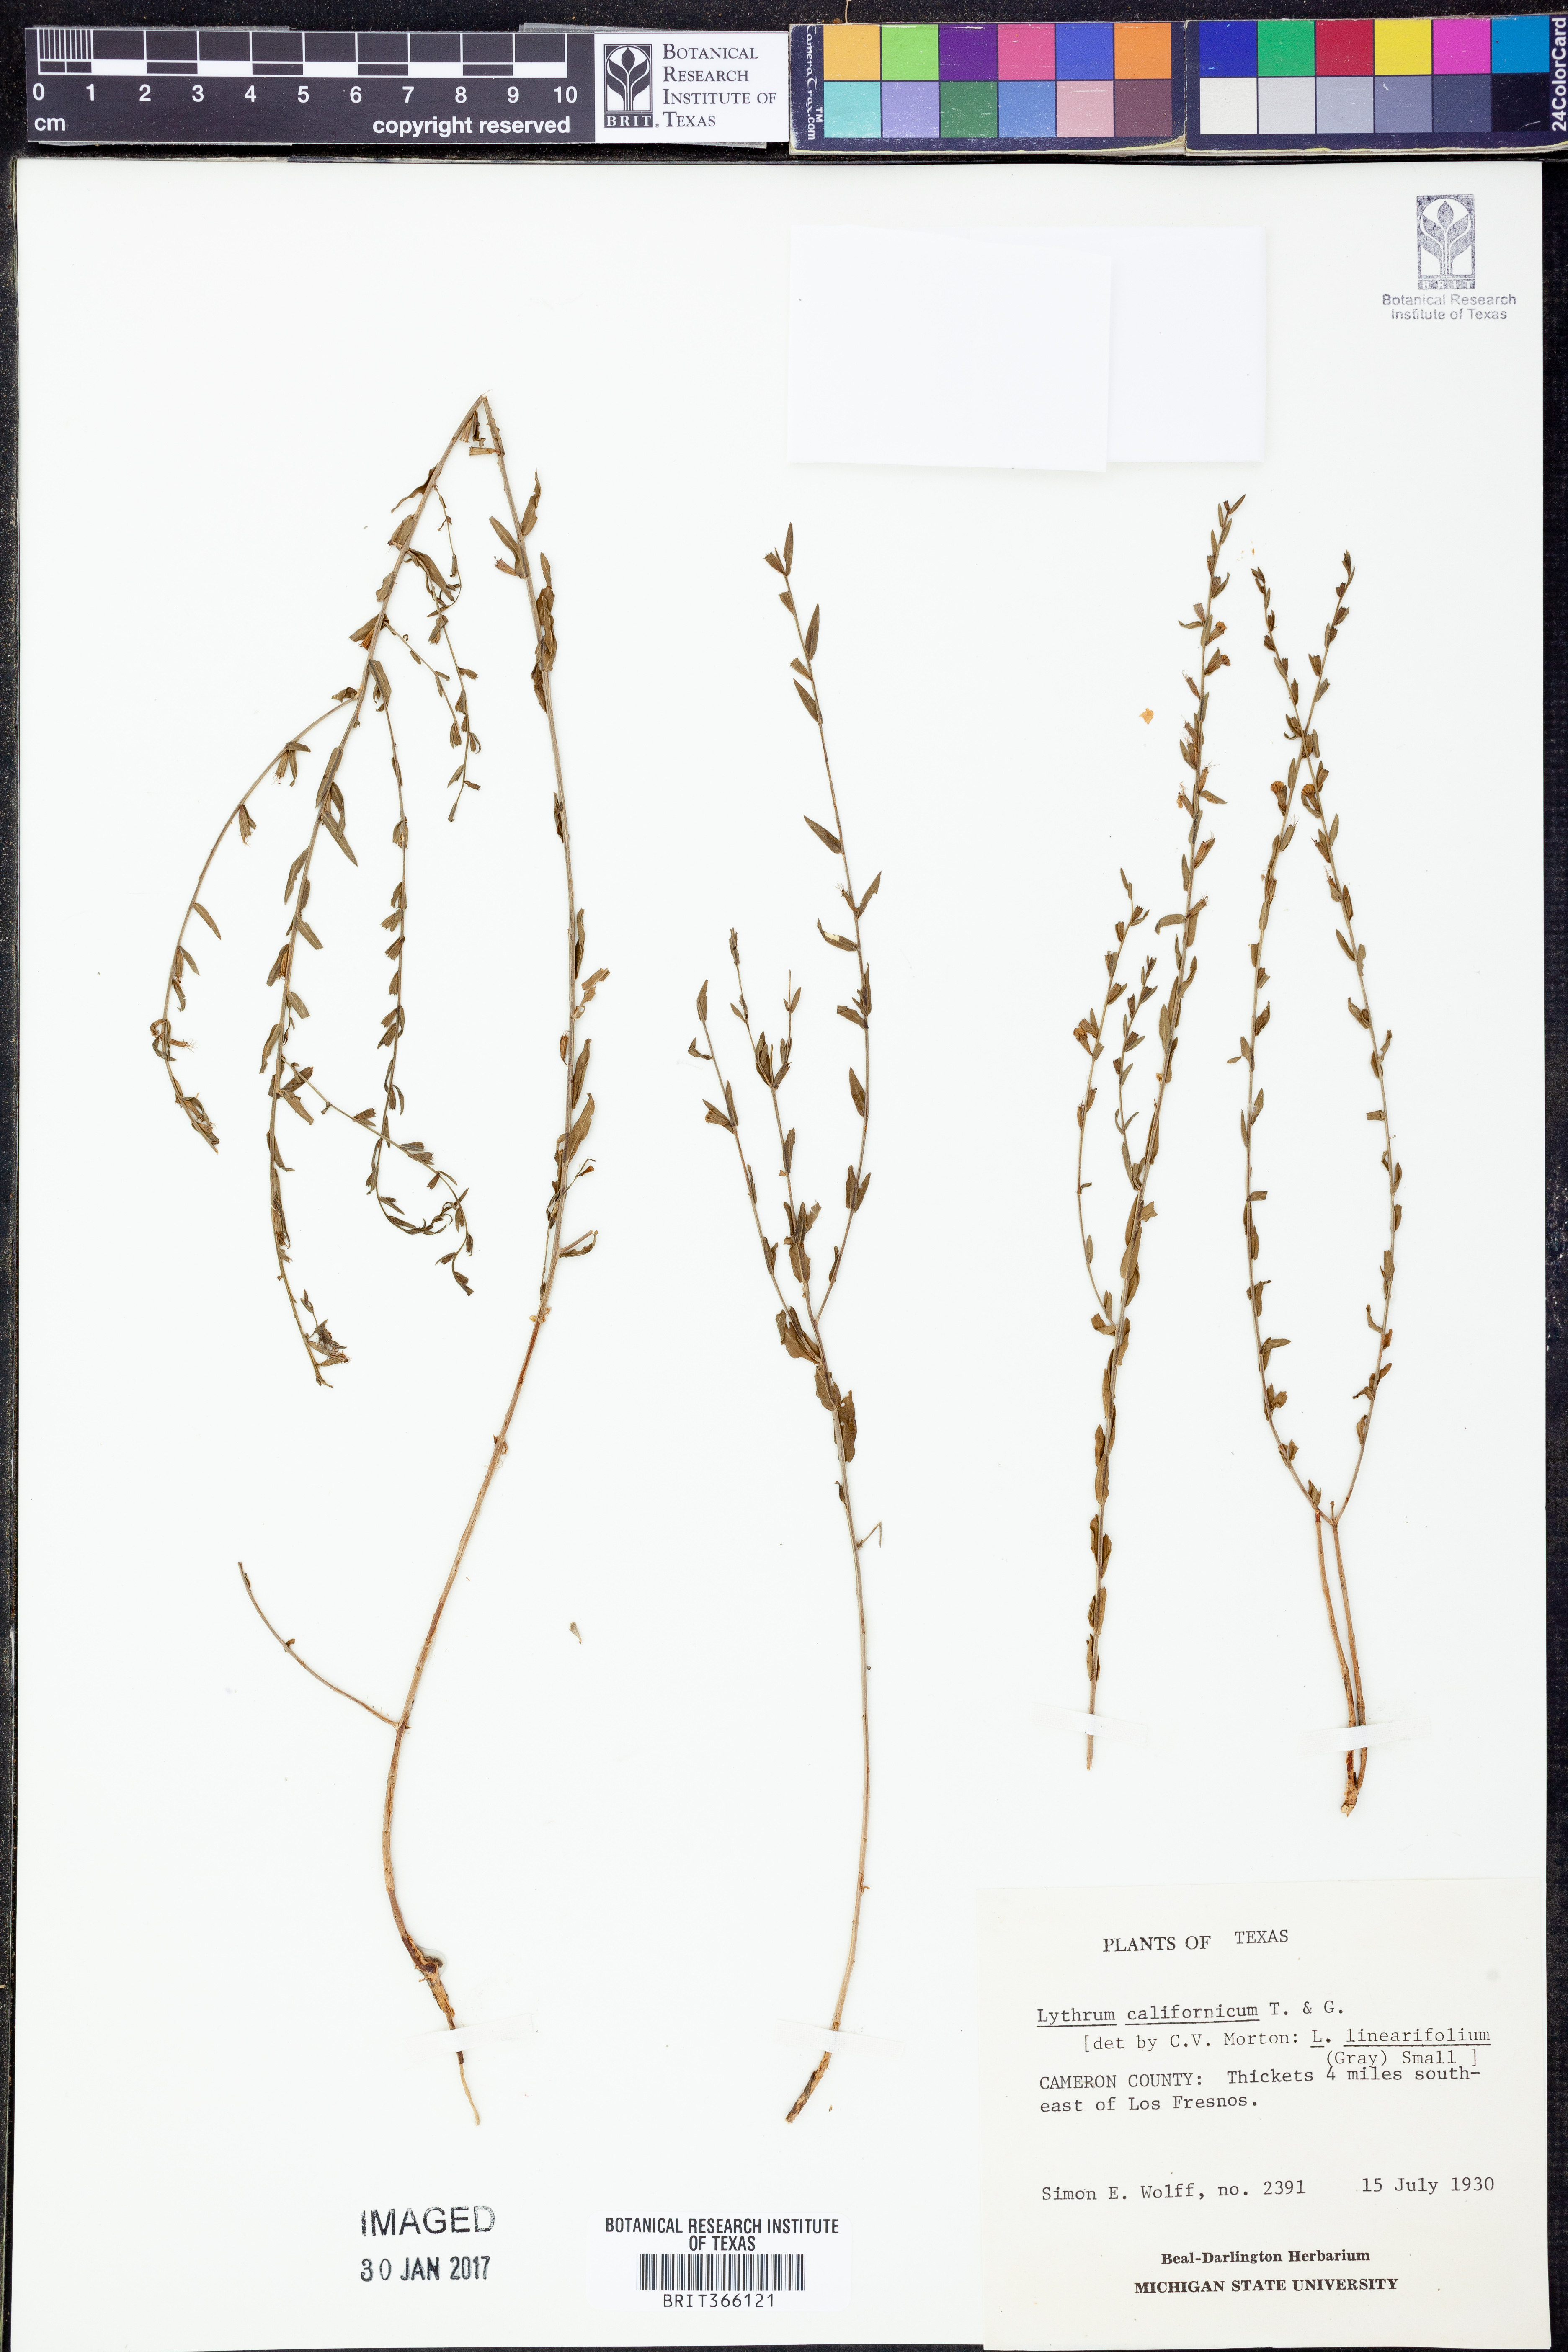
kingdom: Plantae
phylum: Tracheophyta
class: Magnoliopsida
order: Myrtales
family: Lythraceae
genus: Lythrum
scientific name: Lythrum californicum
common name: California loosestrife
